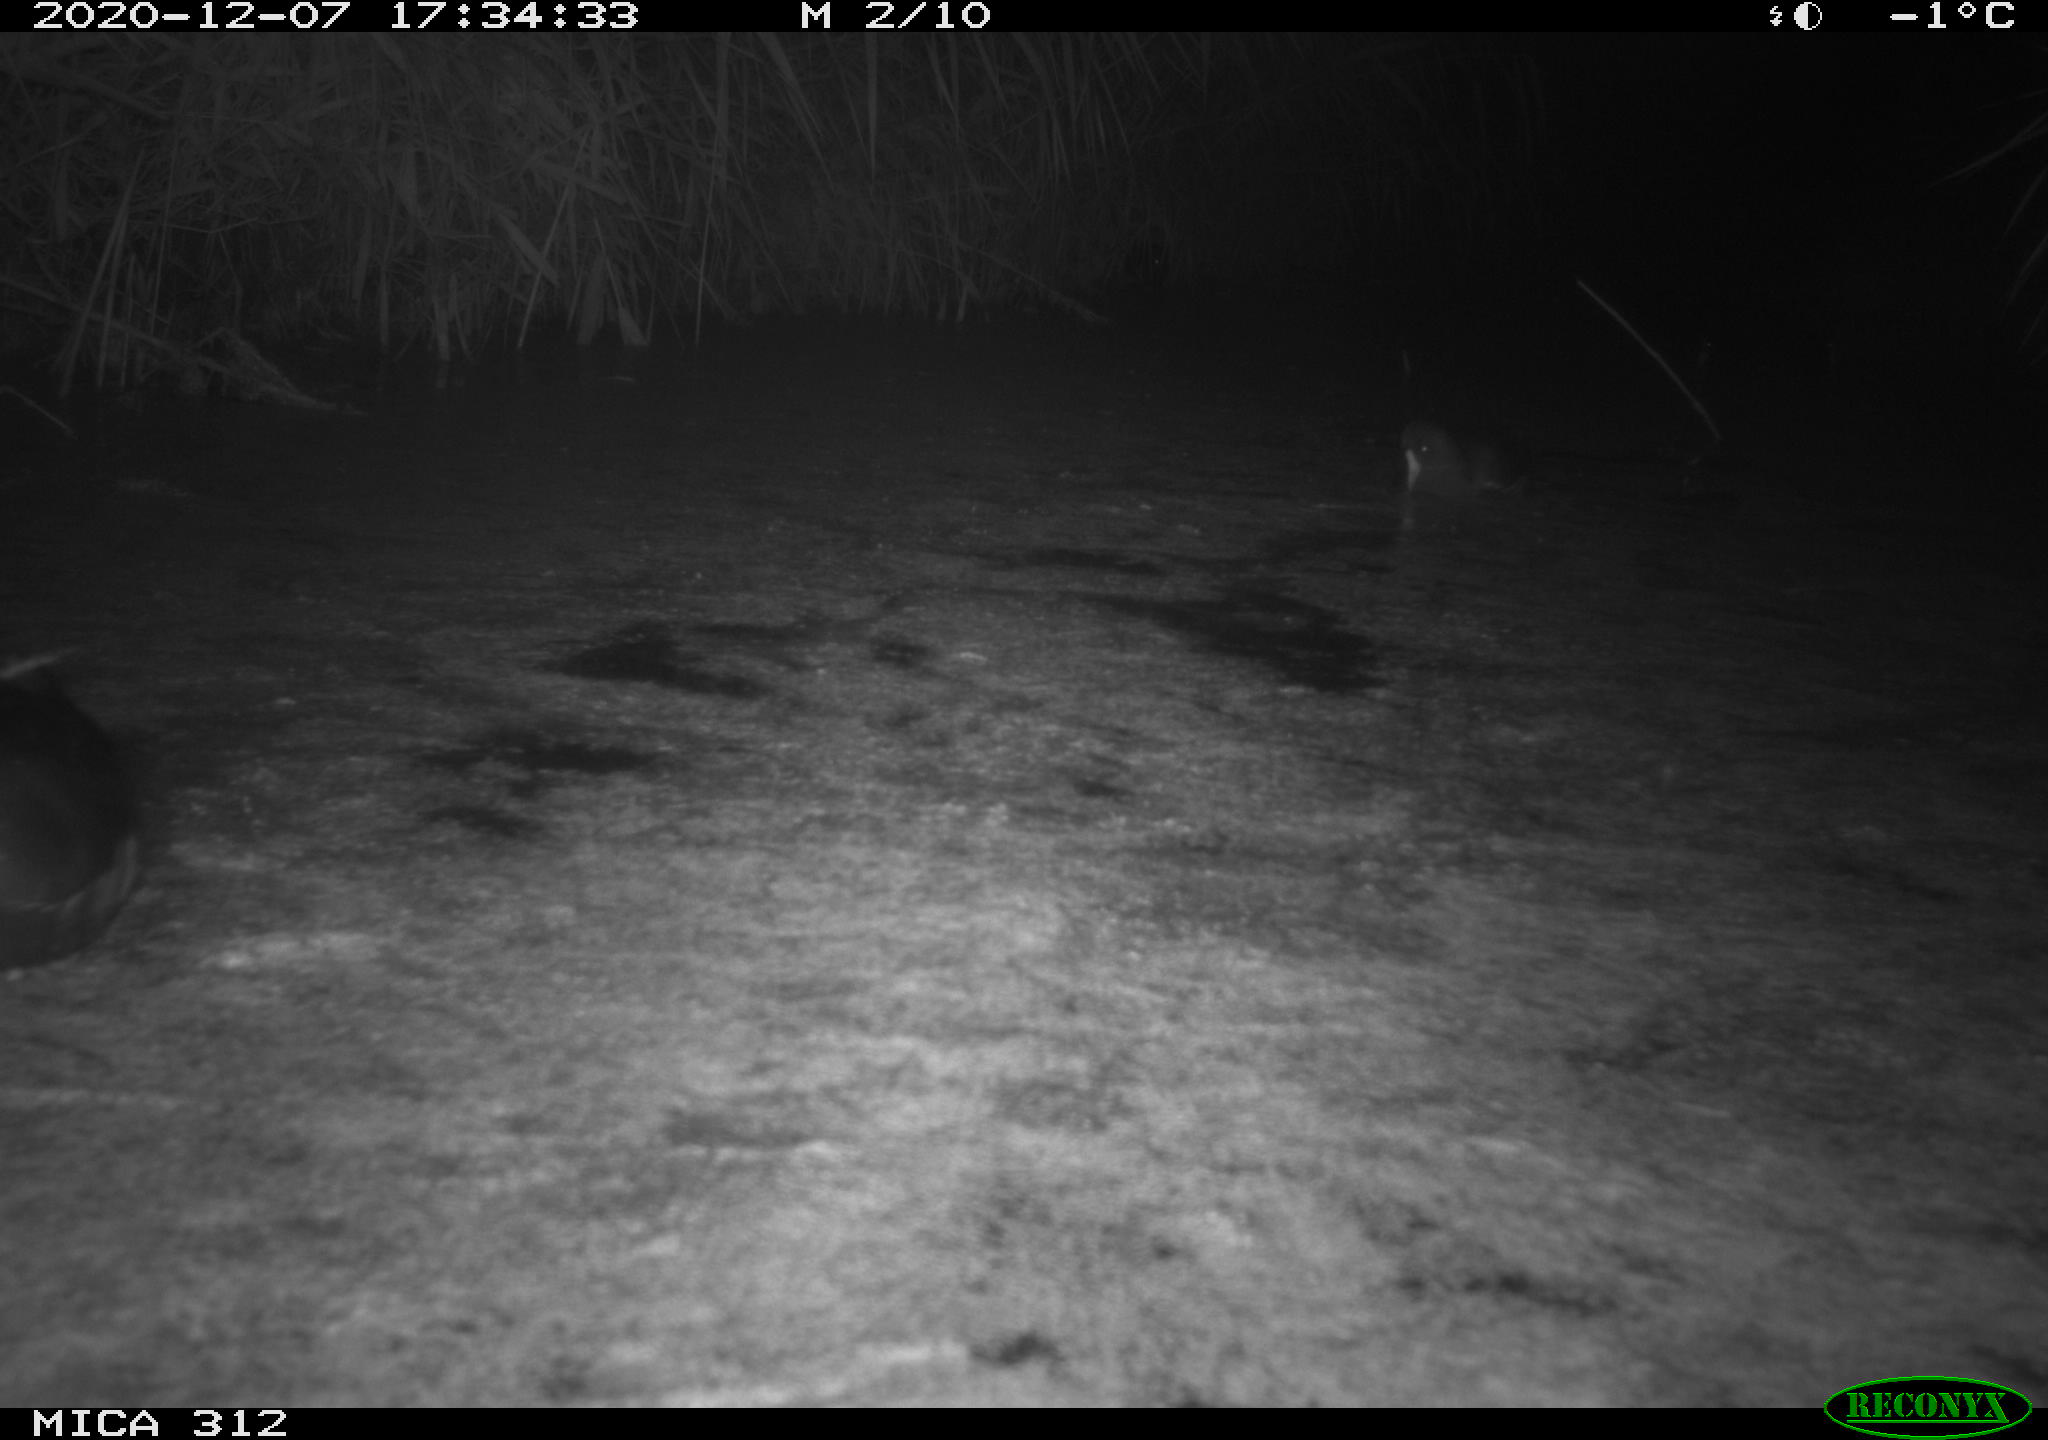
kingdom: Animalia
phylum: Chordata
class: Aves
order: Gruiformes
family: Rallidae
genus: Gallinula
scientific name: Gallinula chloropus
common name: Common moorhen
